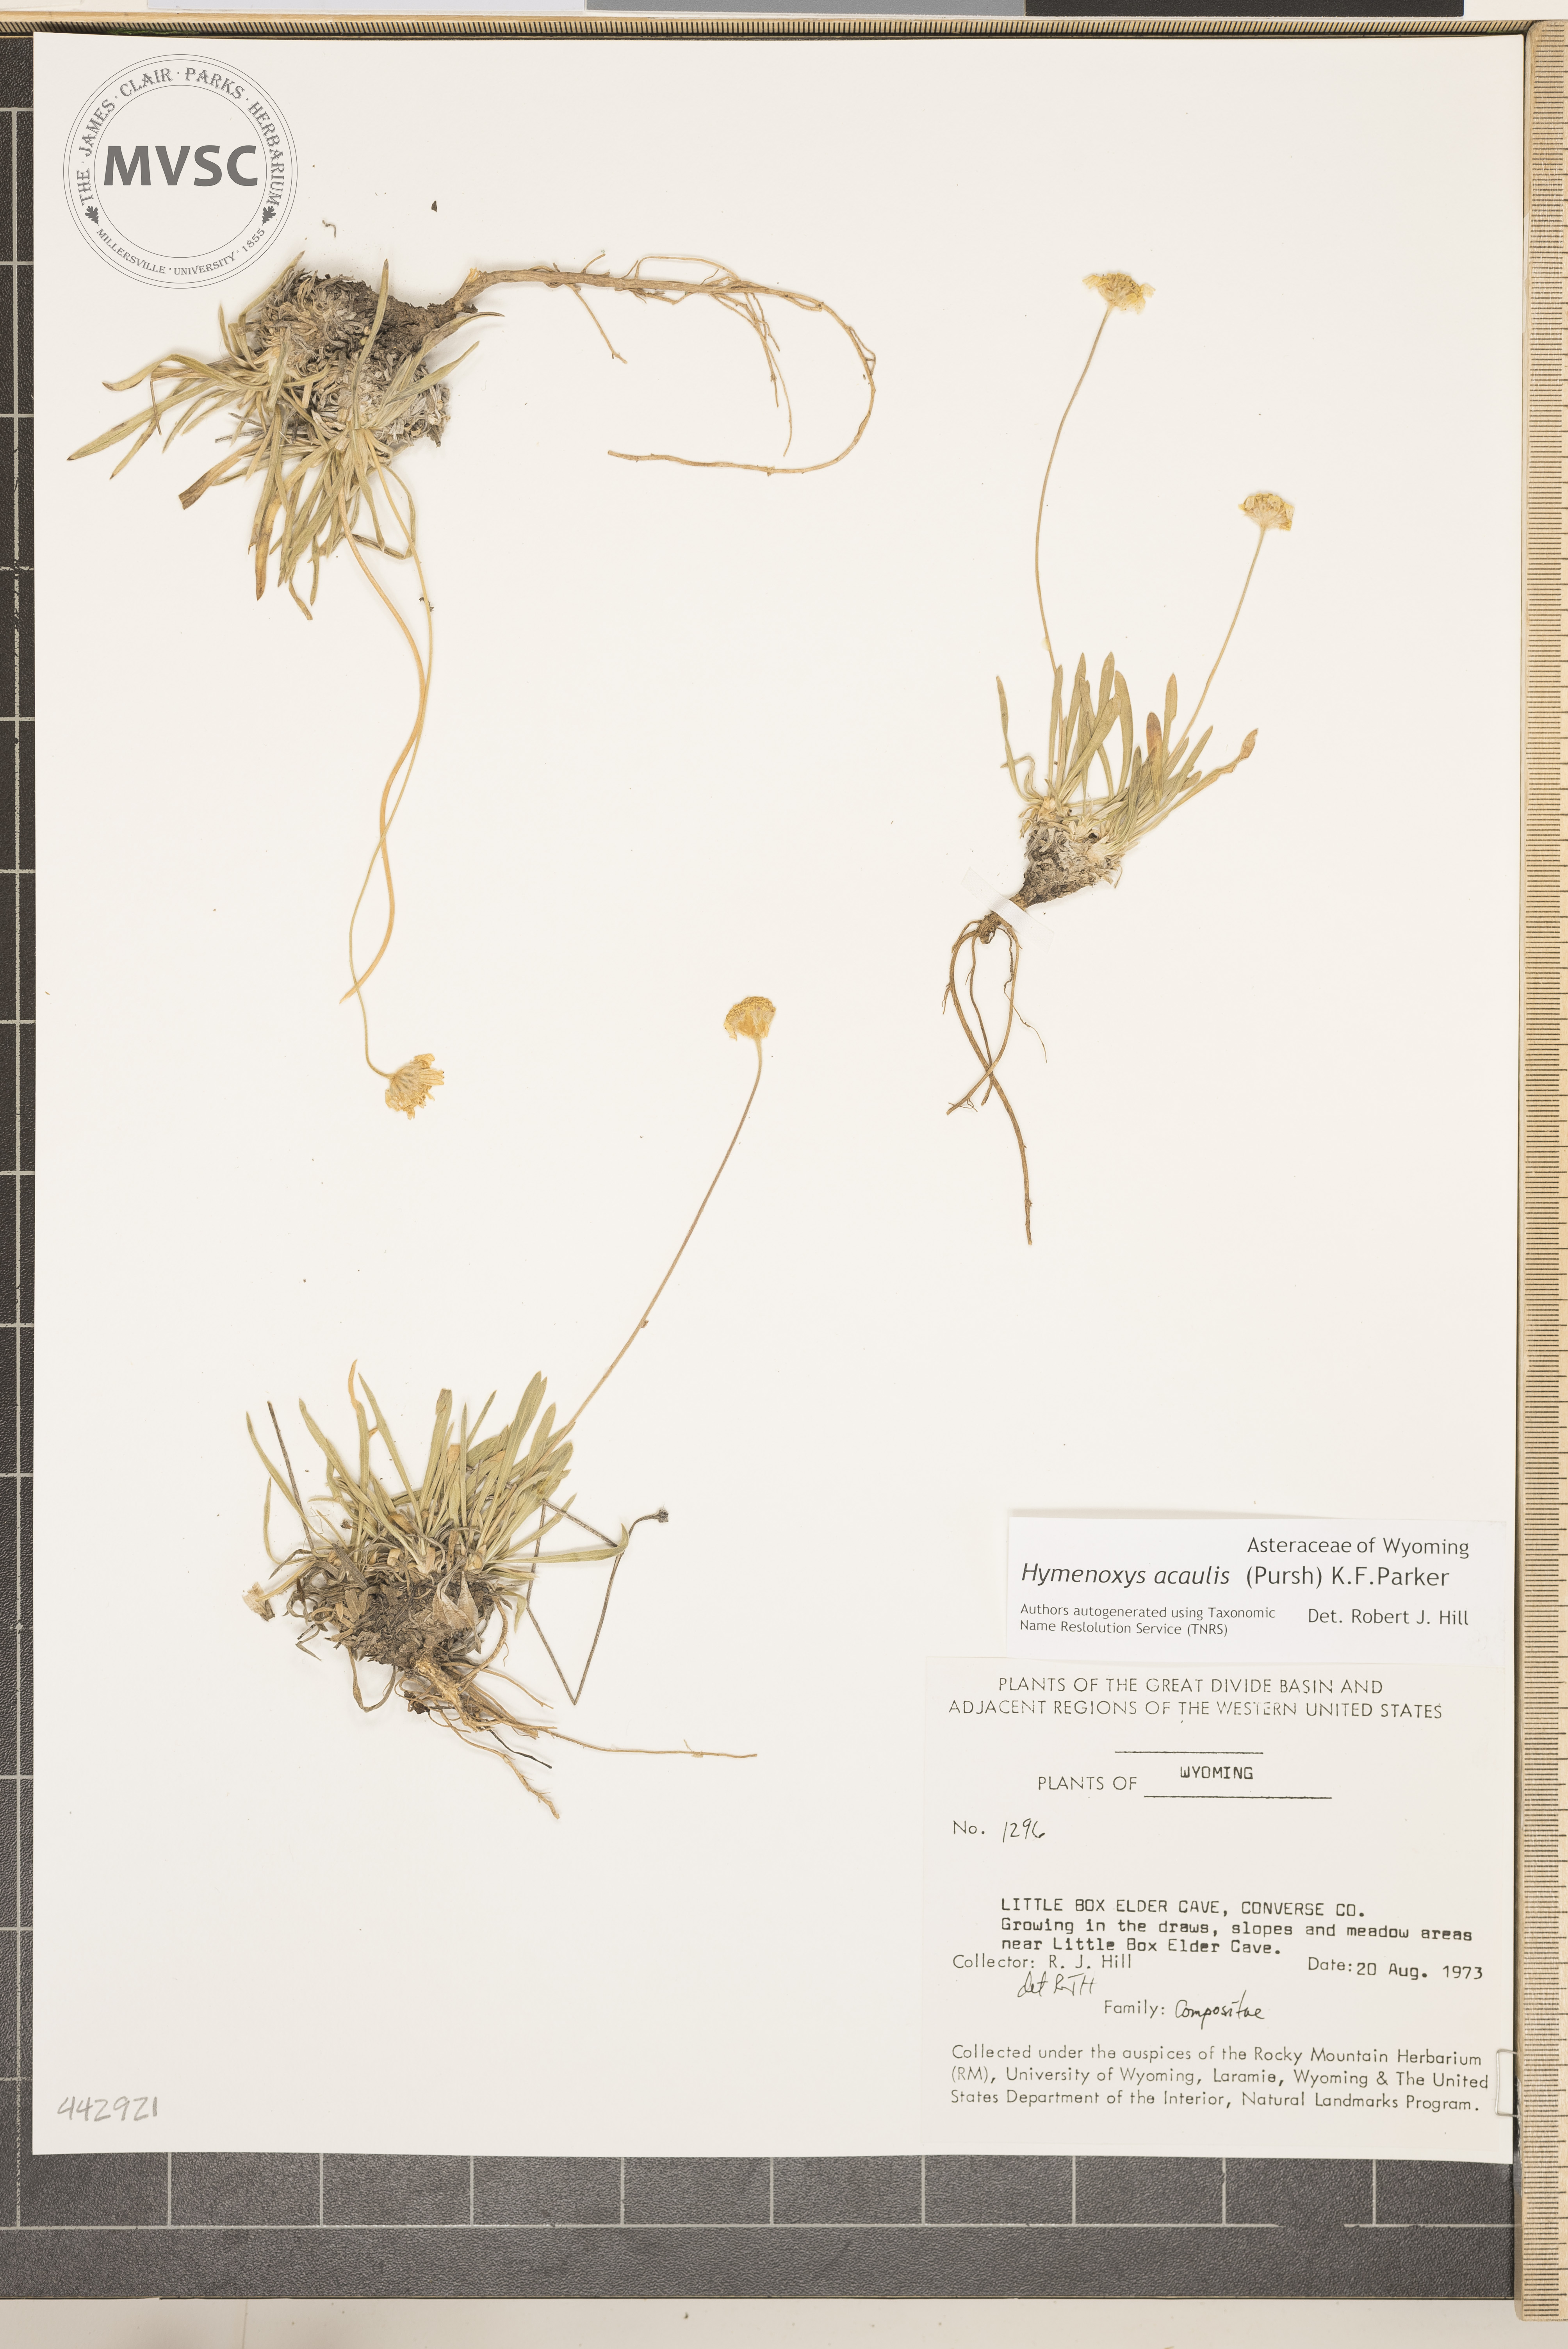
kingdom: Plantae
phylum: Tracheophyta
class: Magnoliopsida
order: Asterales
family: Asteraceae
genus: Tetraneuris
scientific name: Tetraneuris acaulis
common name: Butte marigold
